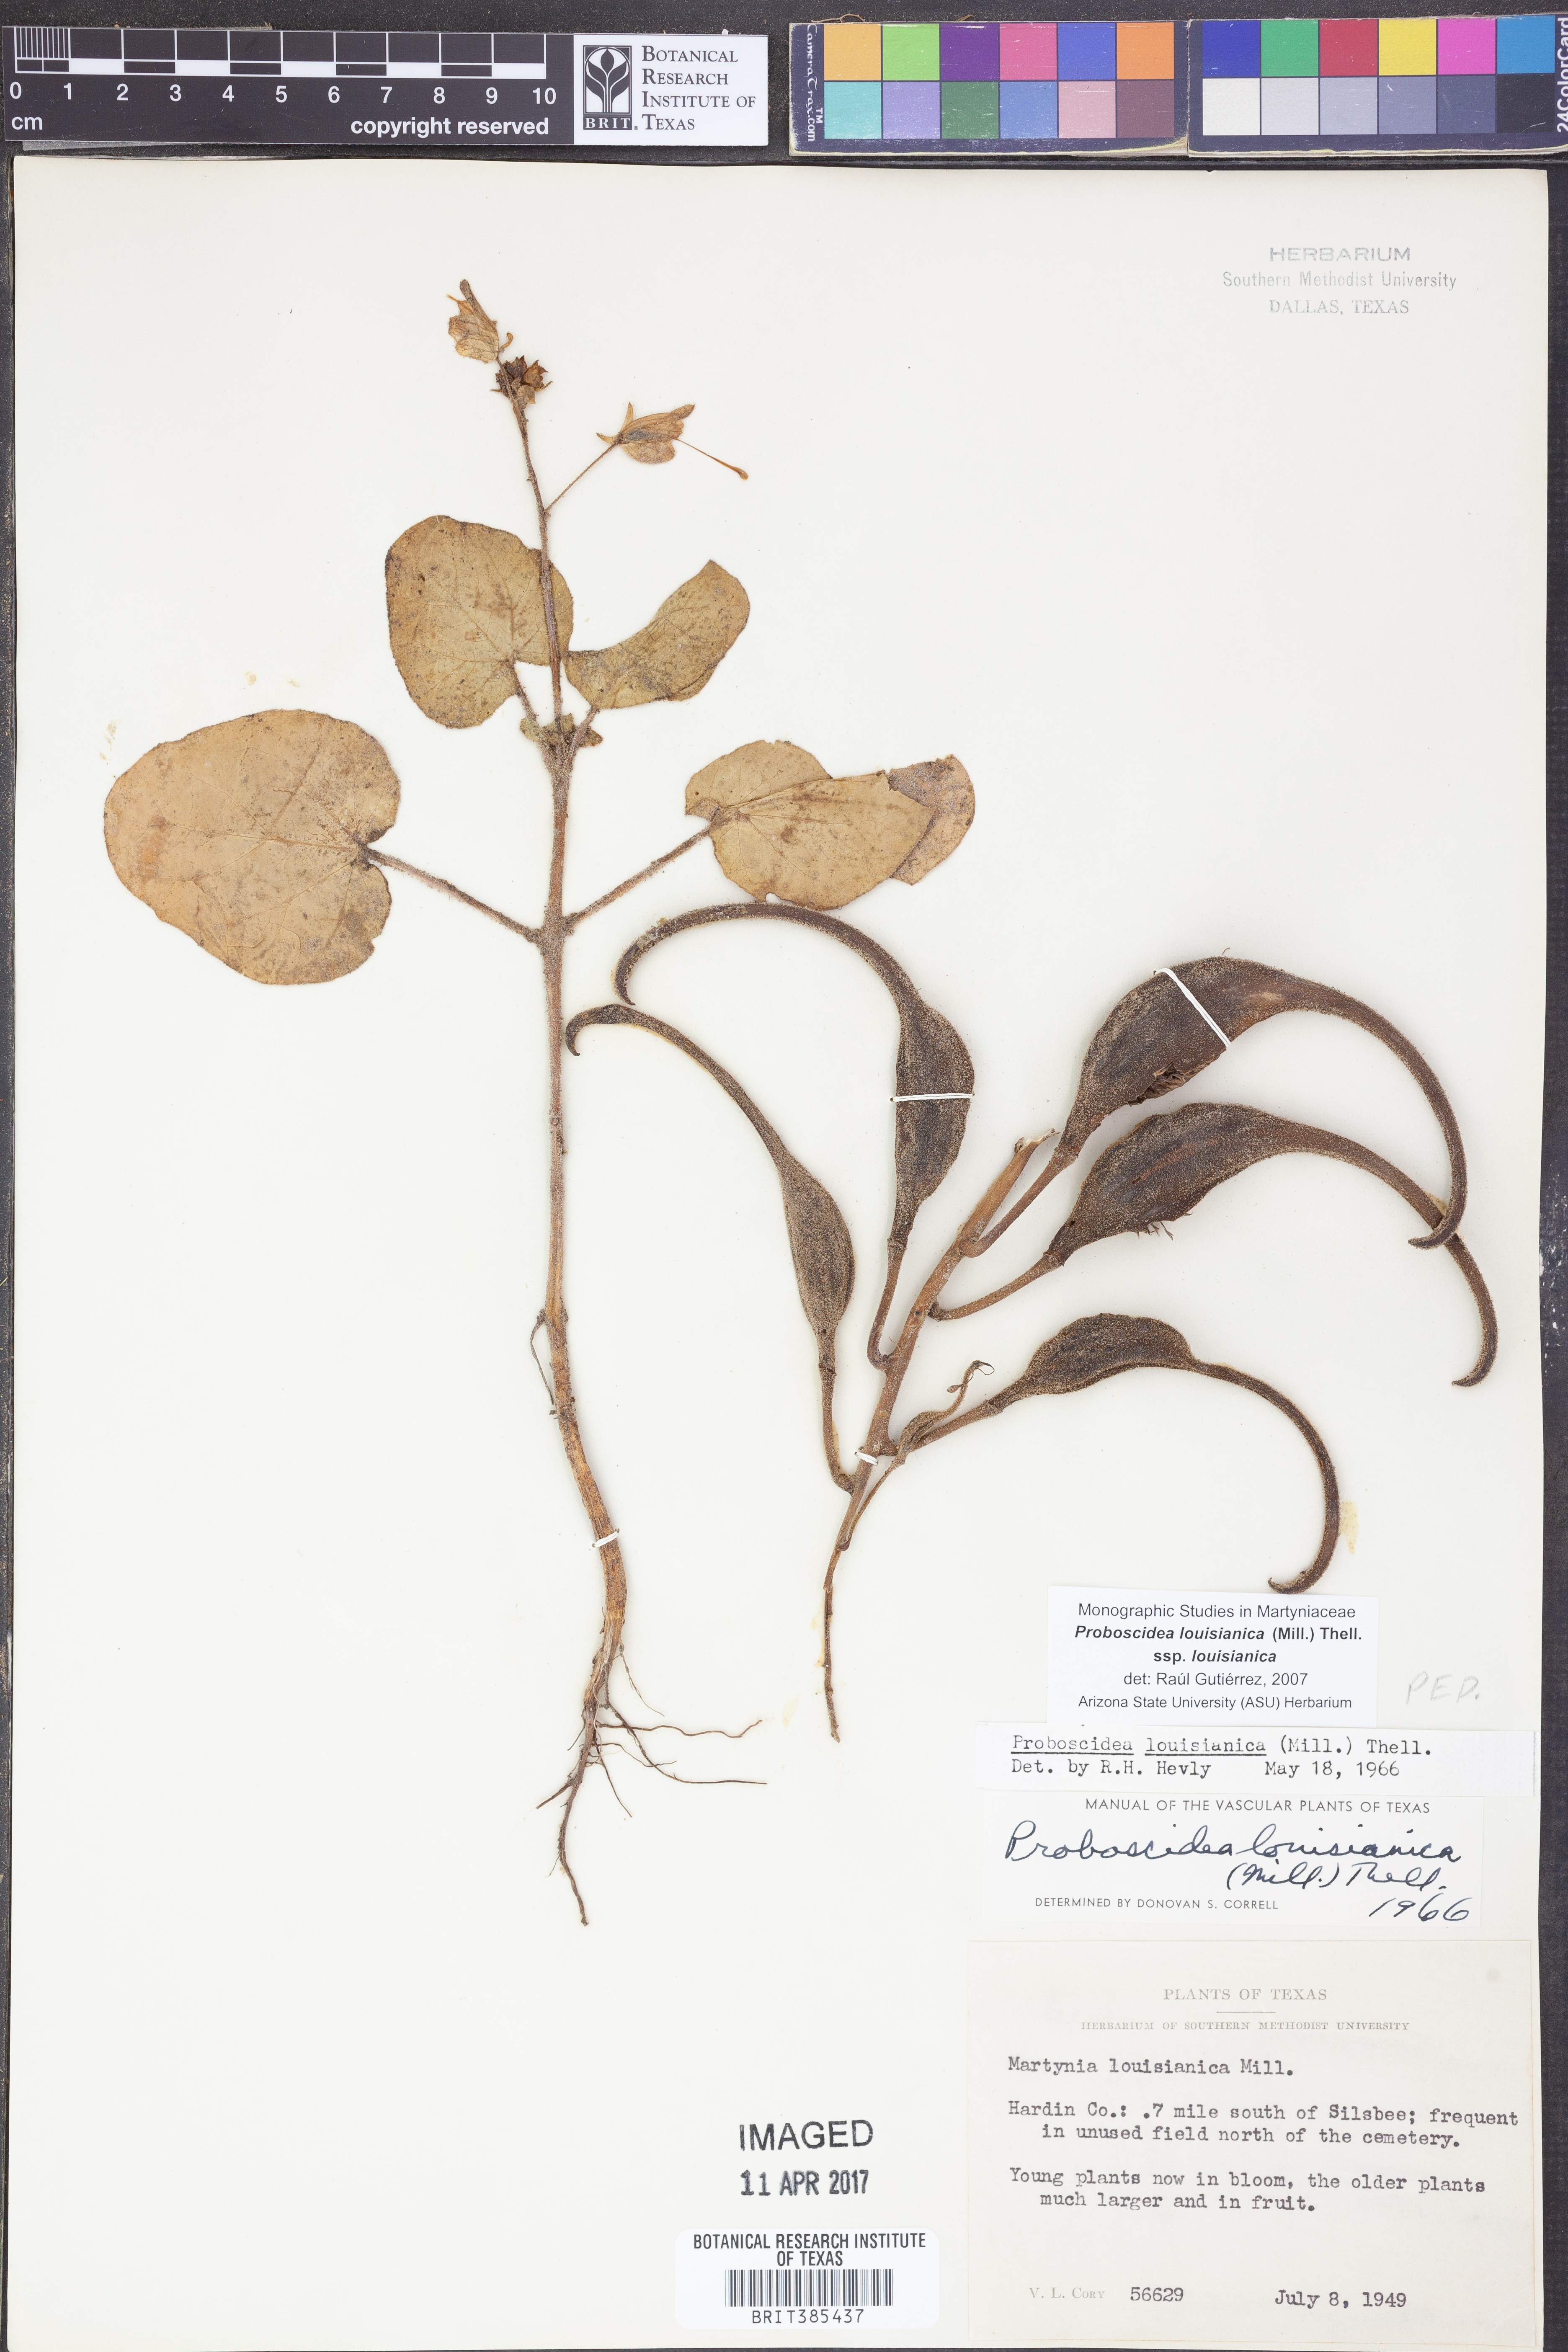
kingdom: Plantae
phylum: Tracheophyta
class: Magnoliopsida
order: Lamiales
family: Martyniaceae
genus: Proboscidea
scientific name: Proboscidea louisianica
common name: Elephant tusks
